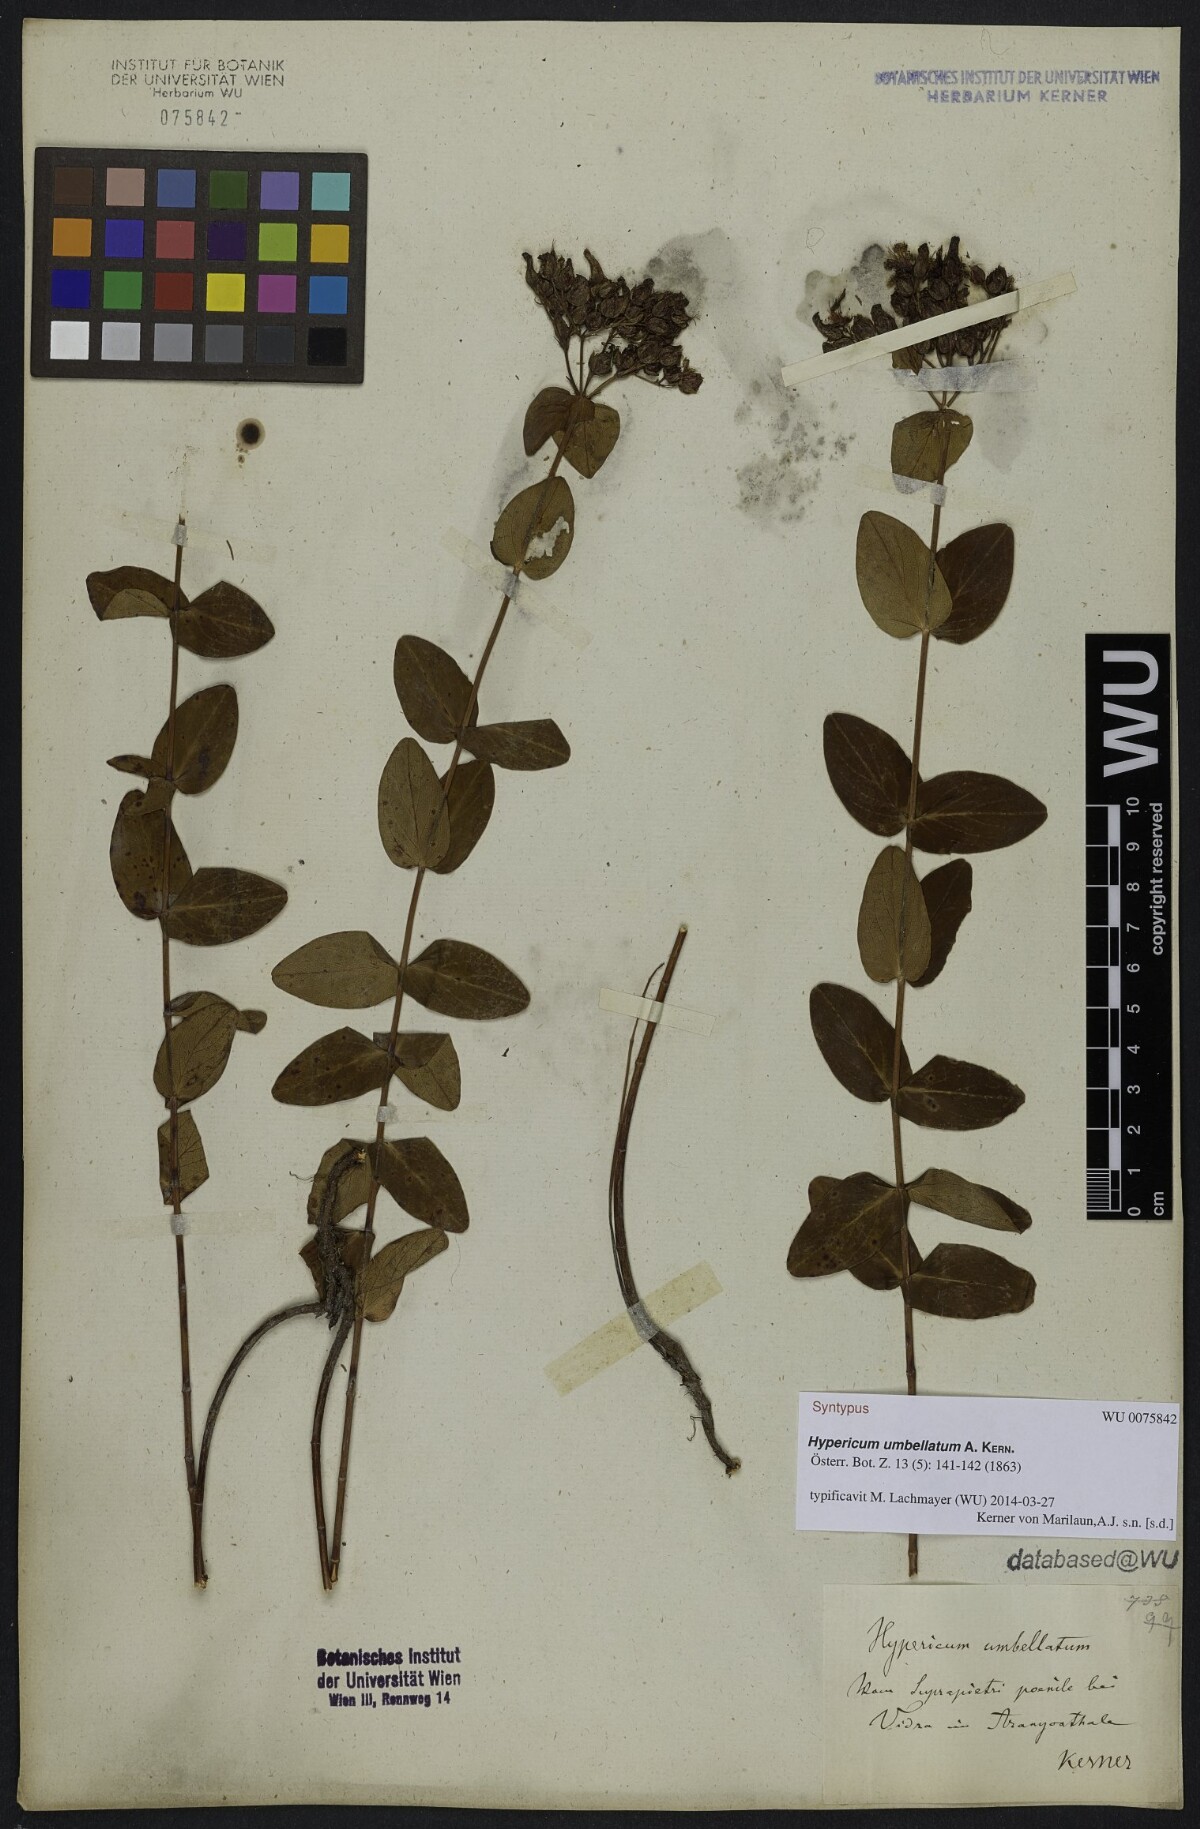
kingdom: Plantae
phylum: Tracheophyta
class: Magnoliopsida
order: Malpighiales
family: Hypericaceae
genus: Hypericum
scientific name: Hypericum umbellatum
